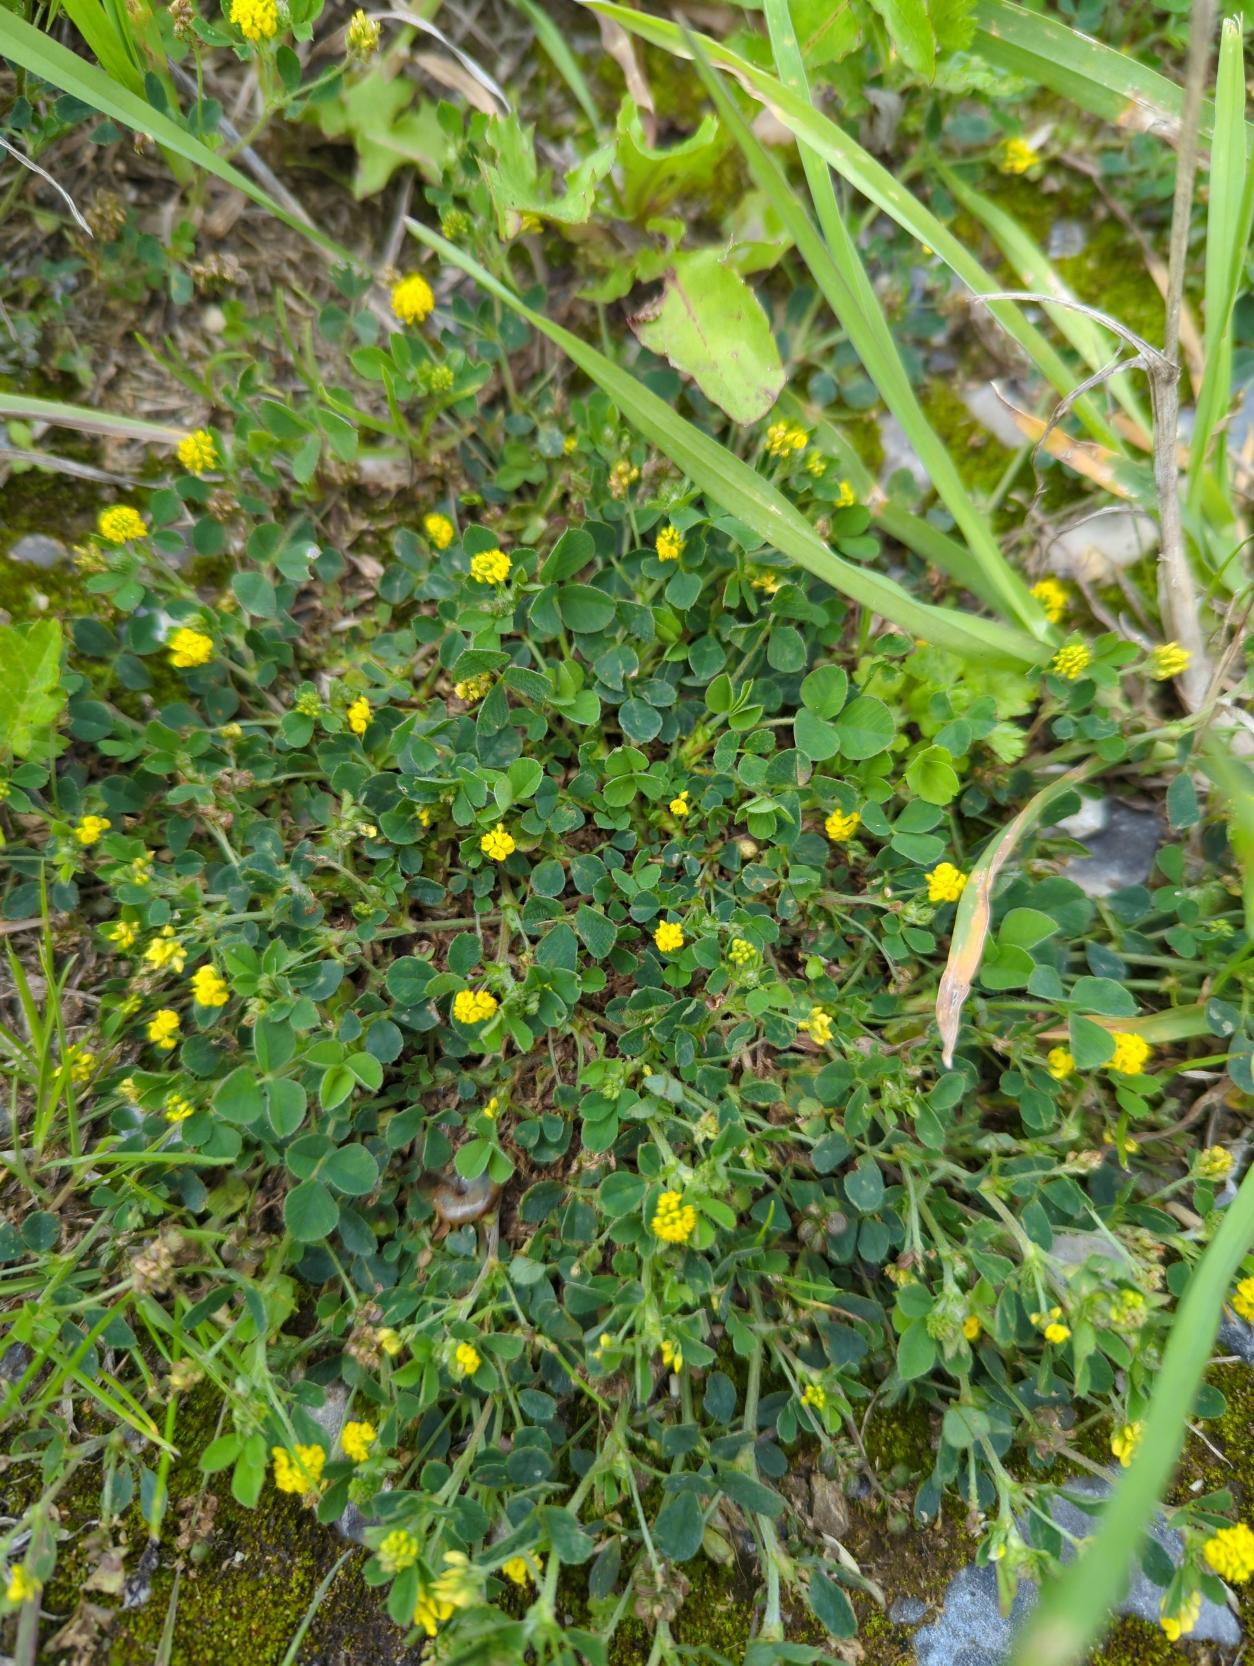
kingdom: Plantae
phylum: Tracheophyta
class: Magnoliopsida
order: Fabales
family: Fabaceae
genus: Medicago
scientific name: Medicago lupulina
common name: Humle-sneglebælg
